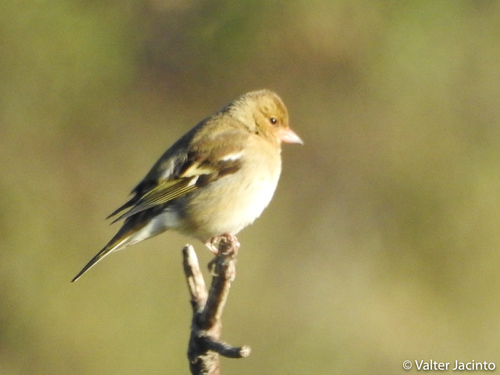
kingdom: Animalia
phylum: Chordata
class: Aves
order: Passeriformes
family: Fringillidae
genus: Fringilla
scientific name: Fringilla coelebs
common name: Common chaffinch
